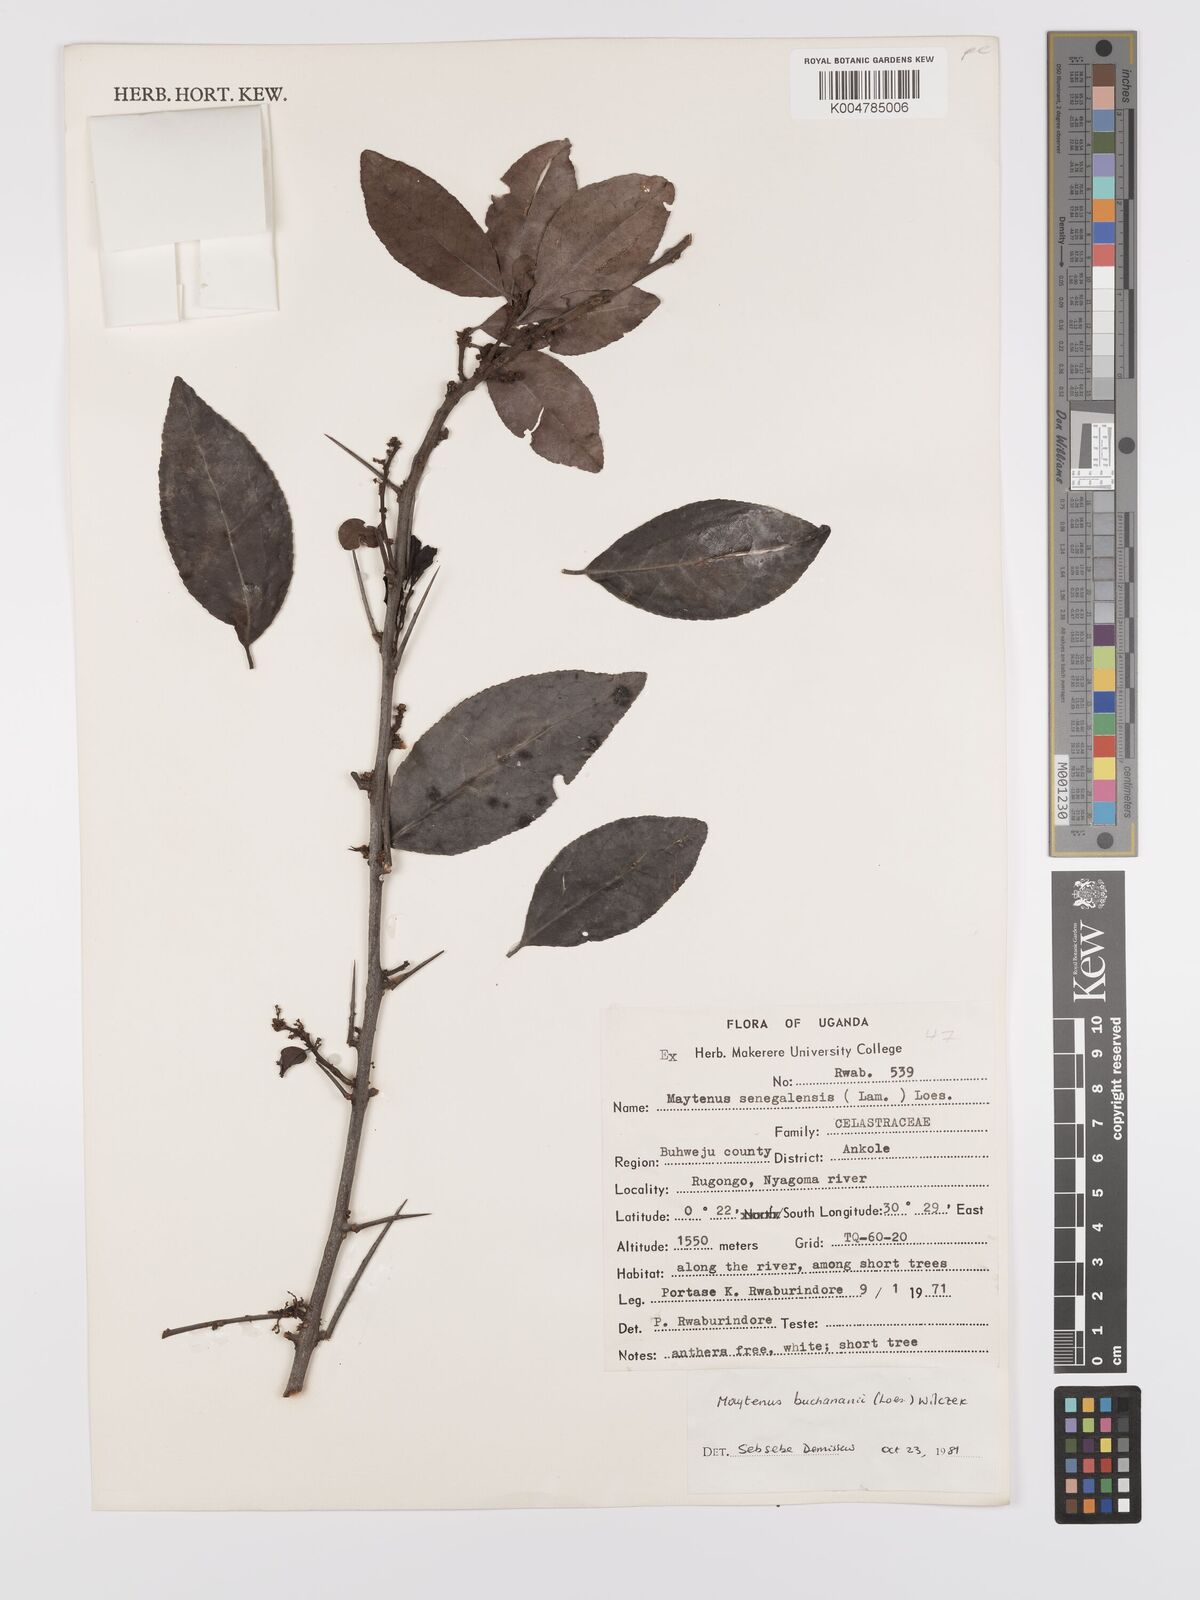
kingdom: Plantae
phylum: Tracheophyta
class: Magnoliopsida
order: Celastrales
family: Celastraceae
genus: Gymnosporia
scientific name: Gymnosporia buchananii
